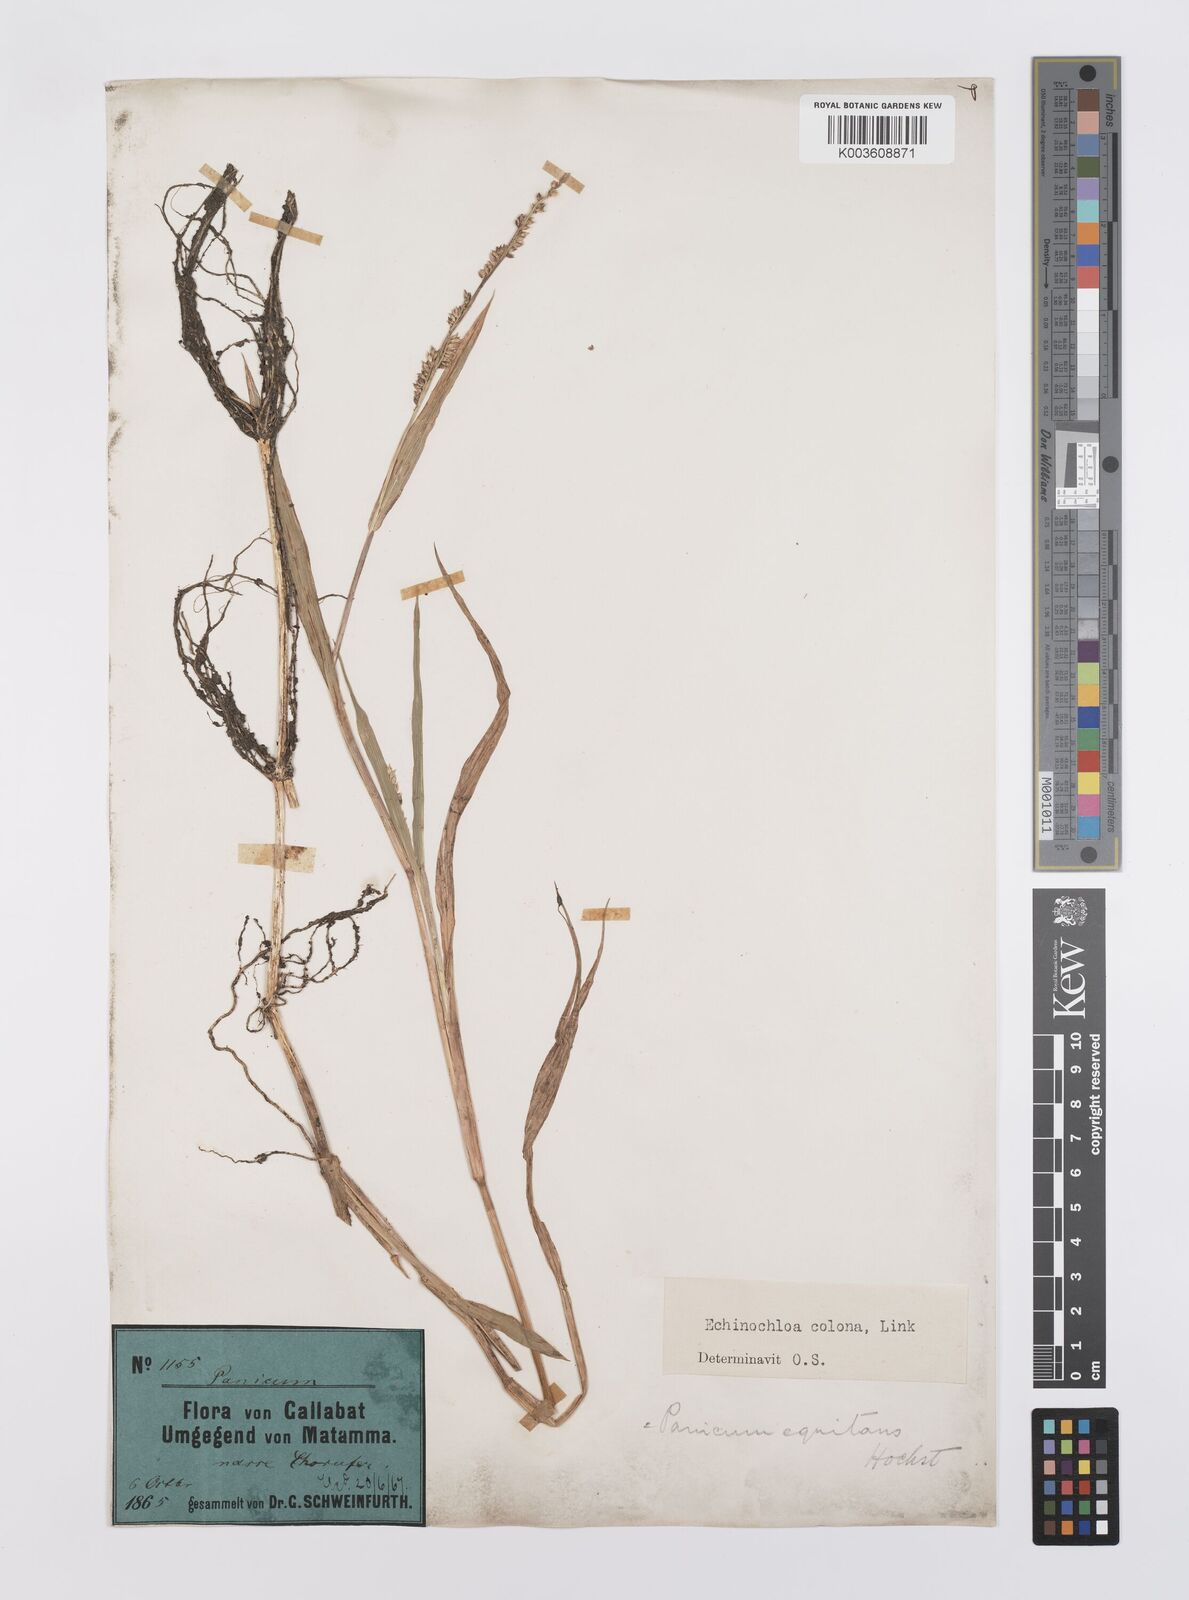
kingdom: Plantae
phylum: Tracheophyta
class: Liliopsida
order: Poales
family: Poaceae
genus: Echinochloa
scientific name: Echinochloa colonum
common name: Jungle rice
